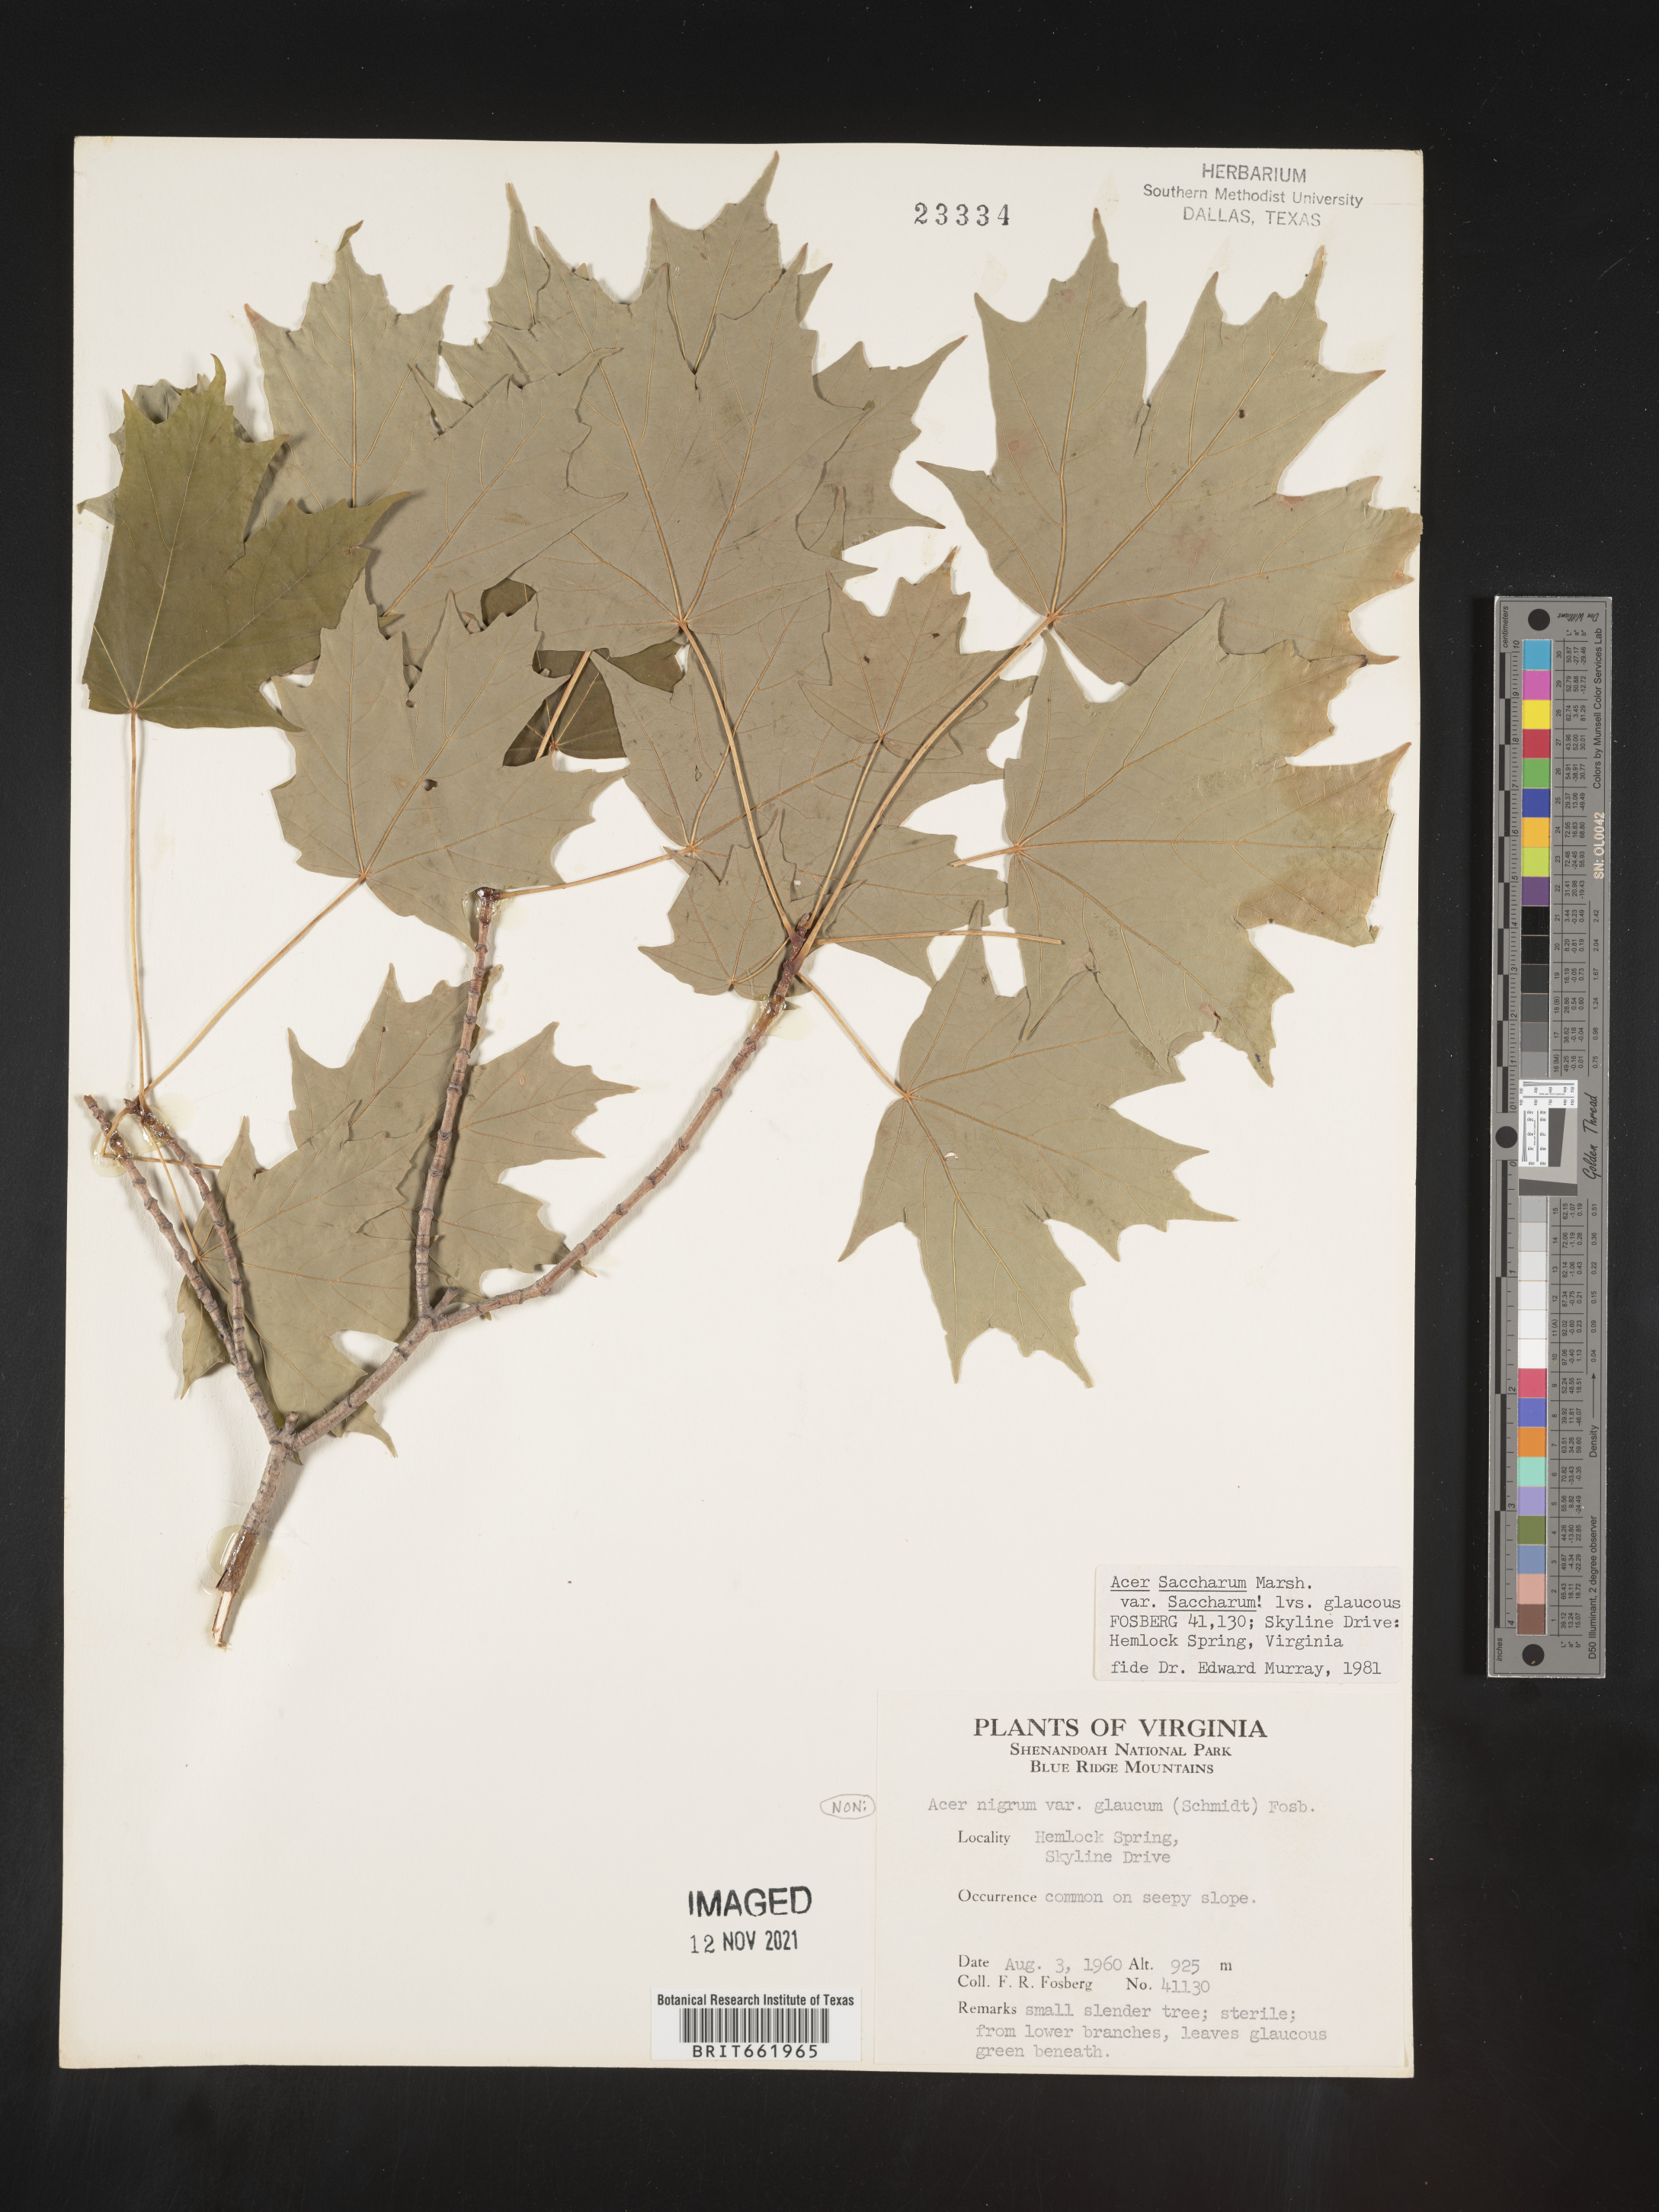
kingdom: Plantae
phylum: Tracheophyta
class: Magnoliopsida
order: Sapindales
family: Sapindaceae
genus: Acer
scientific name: Acer saccharum
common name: Sugar maple
